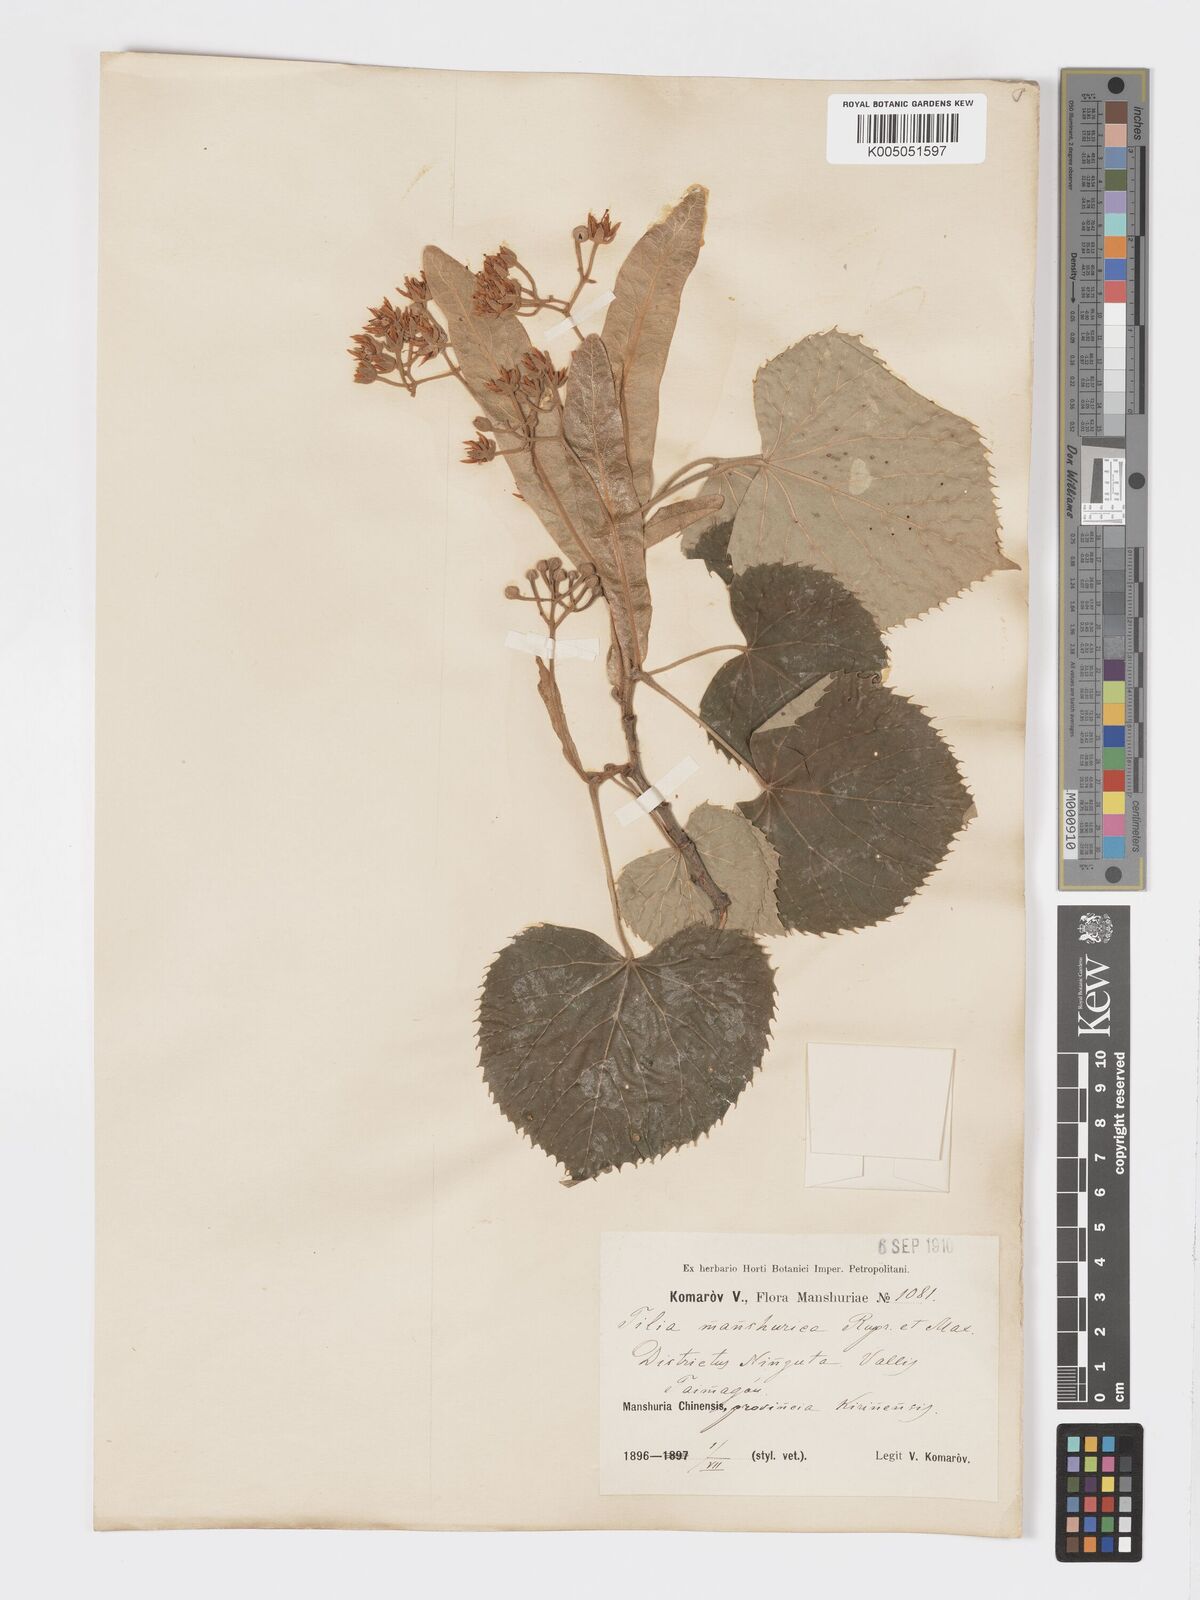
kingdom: Plantae
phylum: Tracheophyta
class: Magnoliopsida
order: Malvales
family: Malvaceae
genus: Tilia
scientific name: Tilia mandshurica
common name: Manchurian linden
